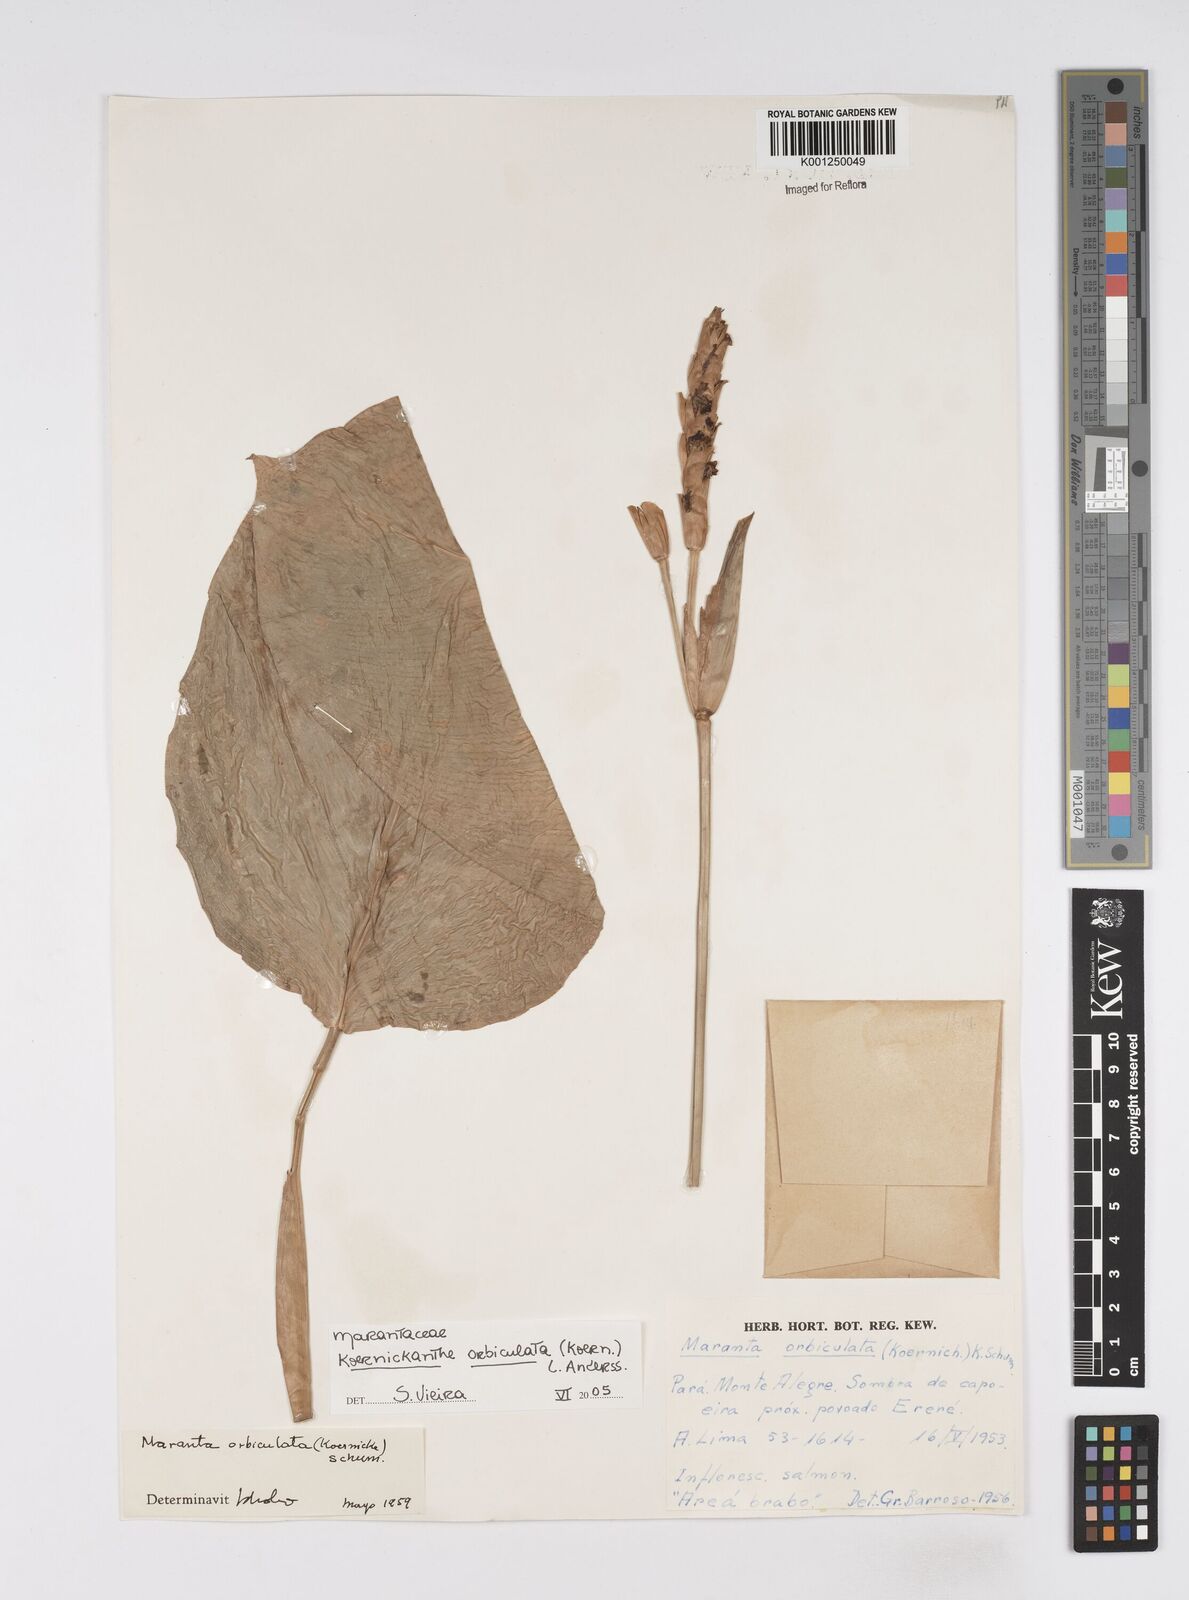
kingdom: Plantae
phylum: Tracheophyta
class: Liliopsida
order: Zingiberales
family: Marantaceae
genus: Koernickanthe
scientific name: Koernickanthe orbiculata
